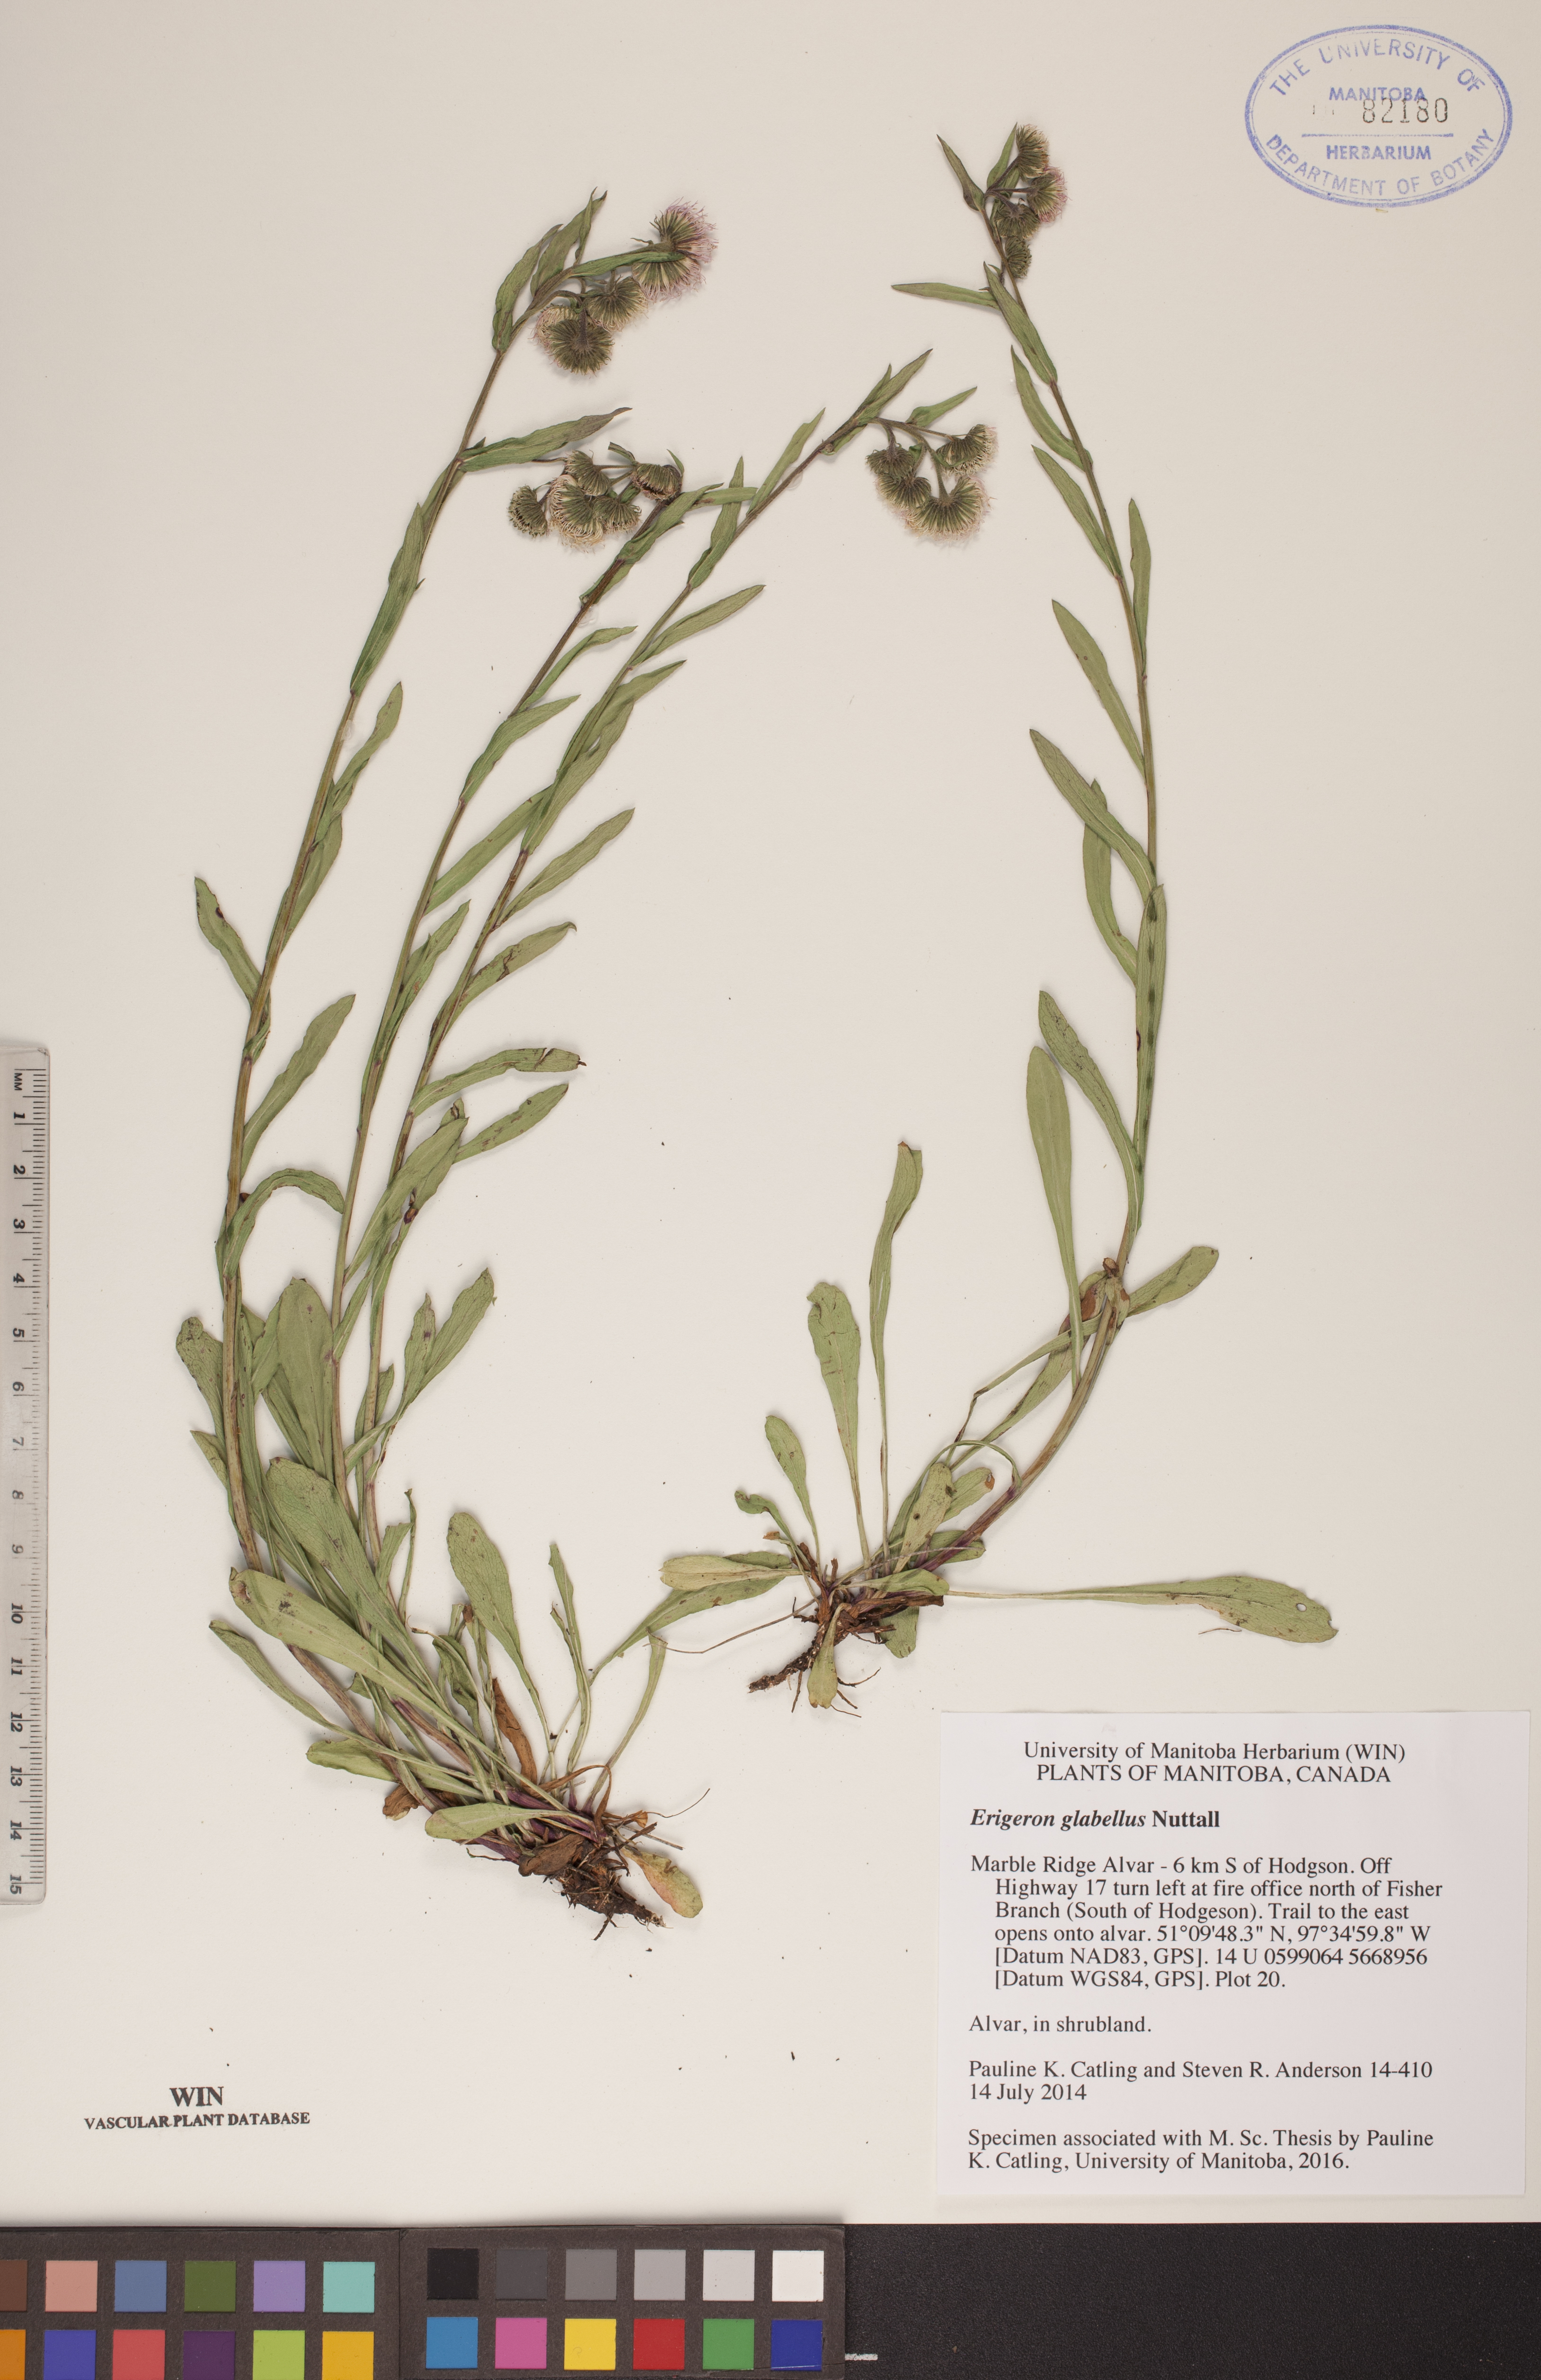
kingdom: Plantae
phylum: Tracheophyta
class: Magnoliopsida
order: Asterales
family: Asteraceae
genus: Erigeron
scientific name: Erigeron glabellus
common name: Smooth fleabane
